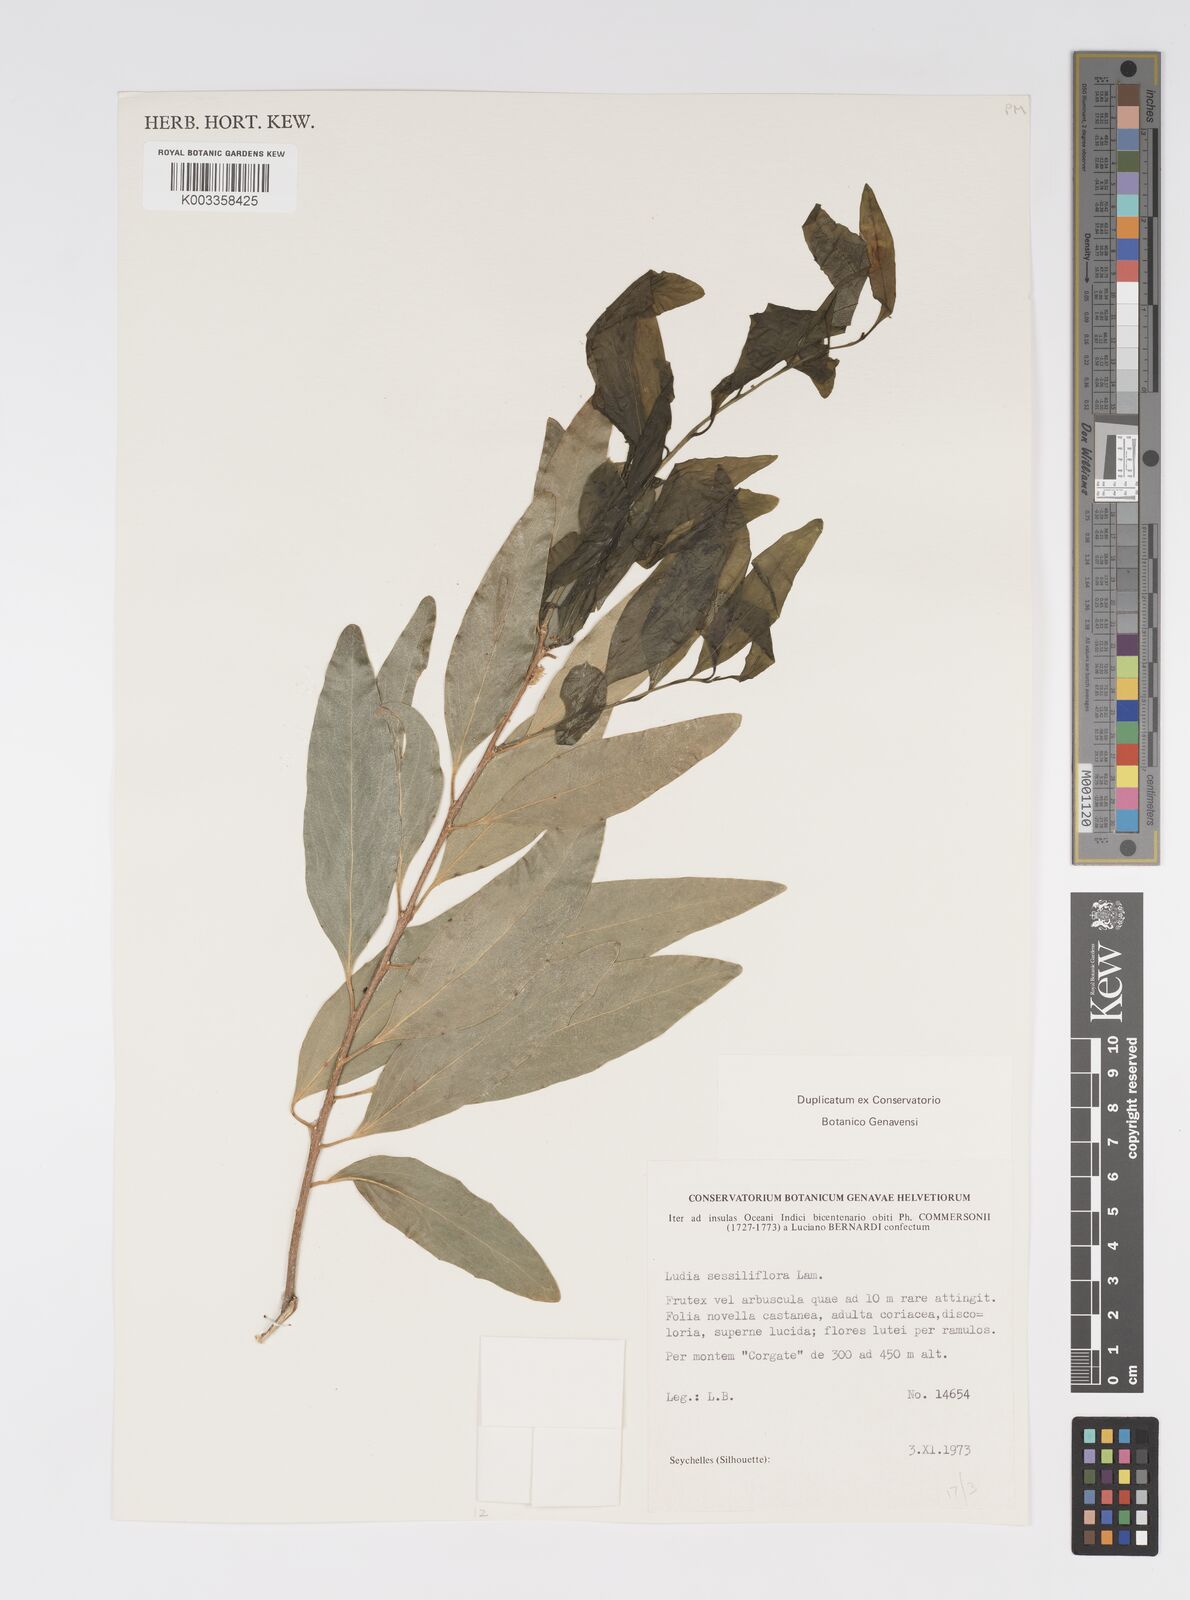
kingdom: Plantae
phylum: Tracheophyta
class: Magnoliopsida
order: Malpighiales
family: Salicaceae
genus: Ludia
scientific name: Ludia mauritiana
